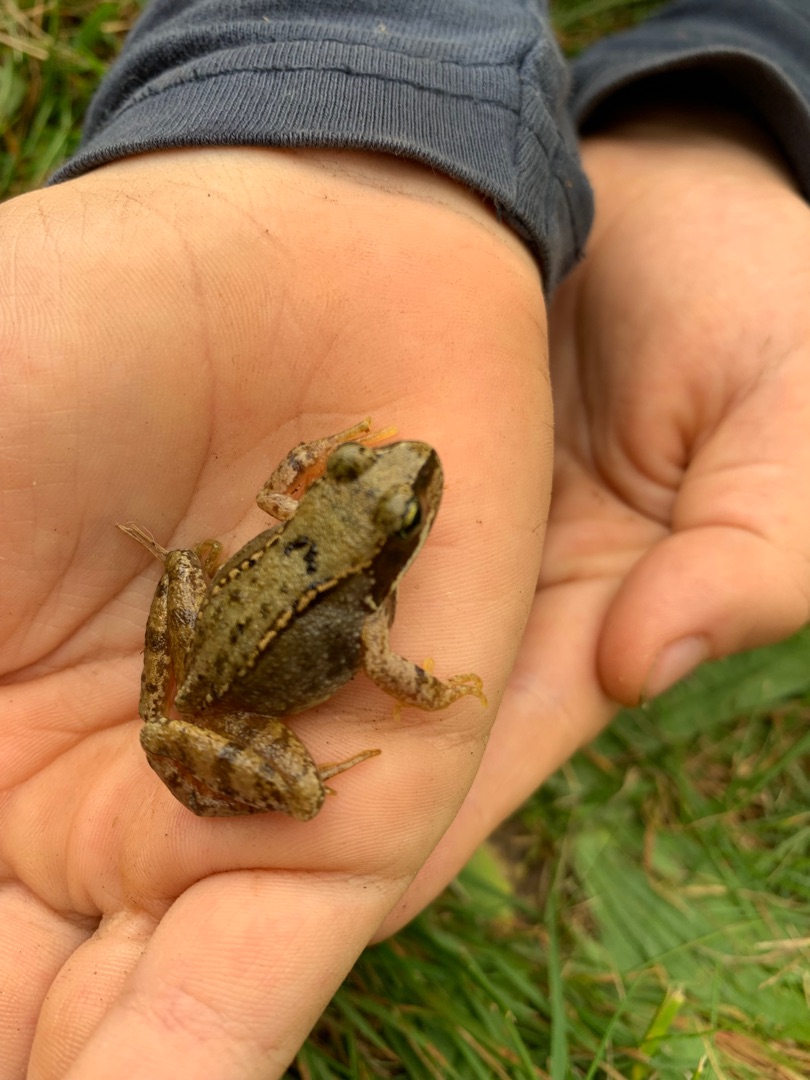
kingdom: Animalia
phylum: Chordata
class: Amphibia
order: Anura
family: Ranidae
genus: Rana
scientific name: Rana temporaria
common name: Butsnudet frø
